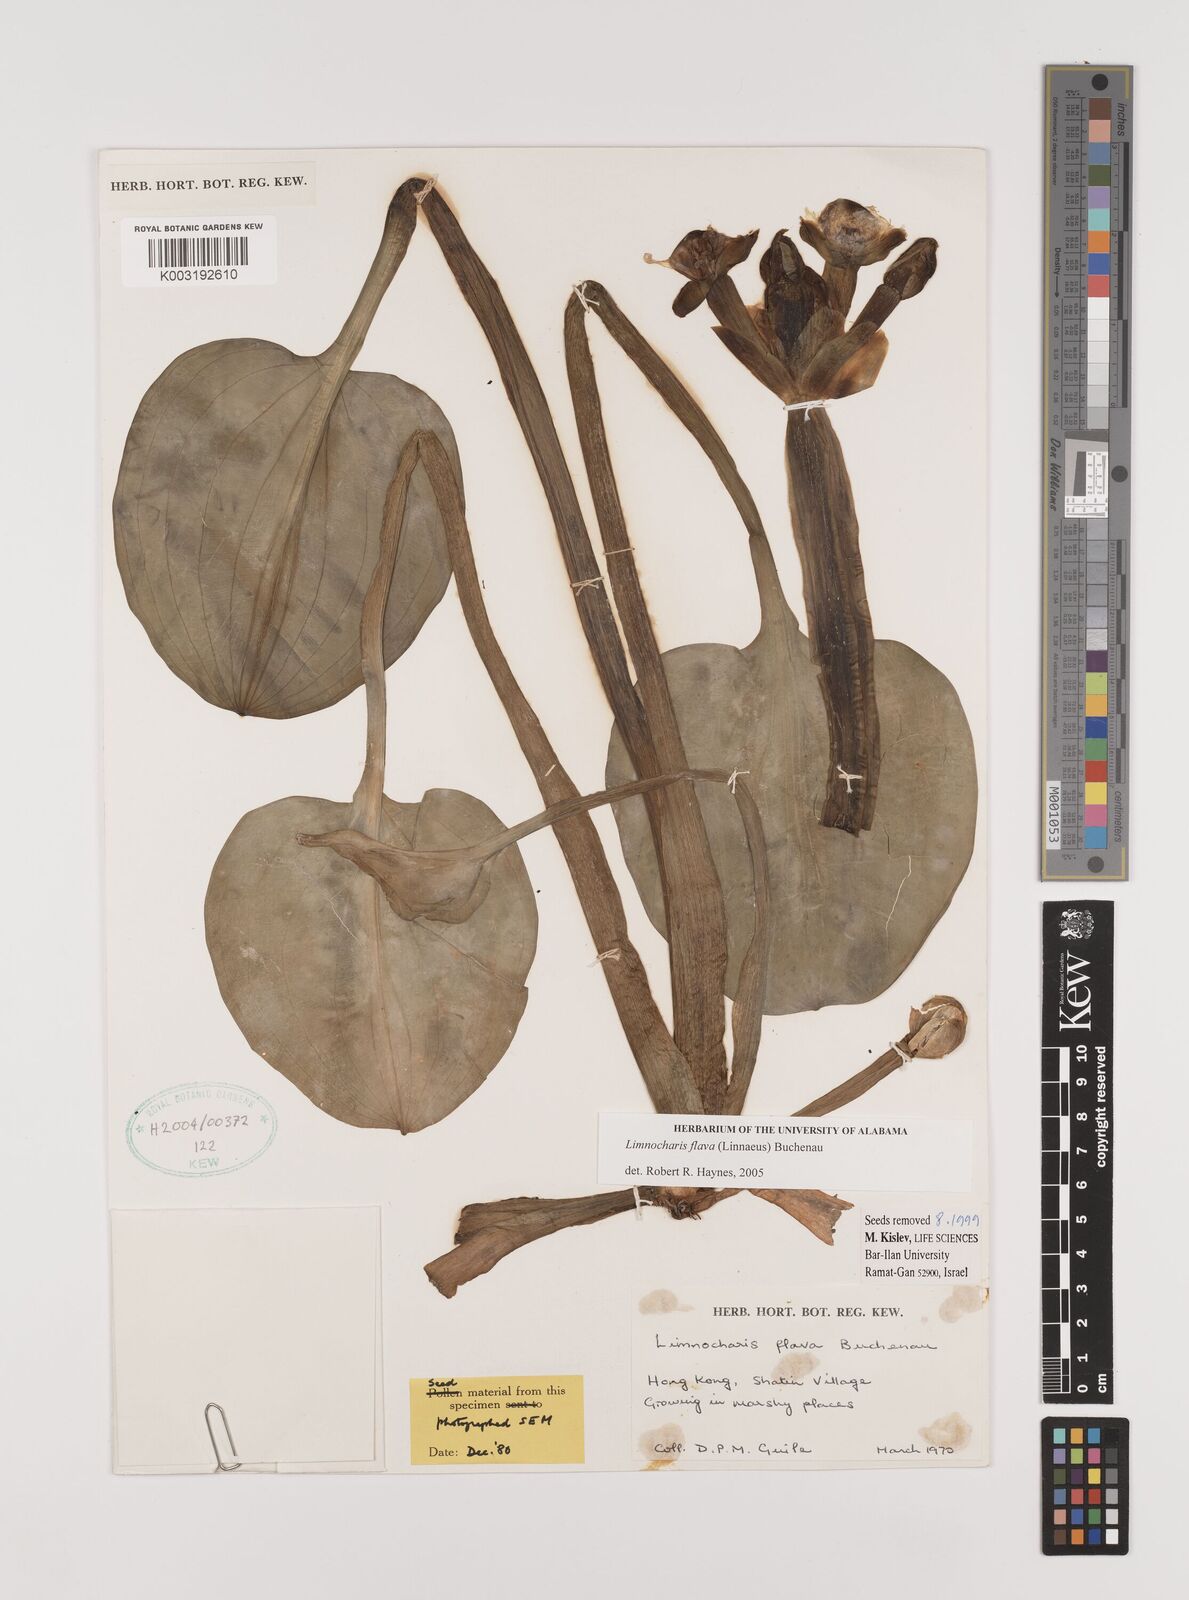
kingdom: Plantae
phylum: Tracheophyta
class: Liliopsida
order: Alismatales
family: Alismataceae
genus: Limnocharis
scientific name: Limnocharis flava
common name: Sawah-flower-rush
